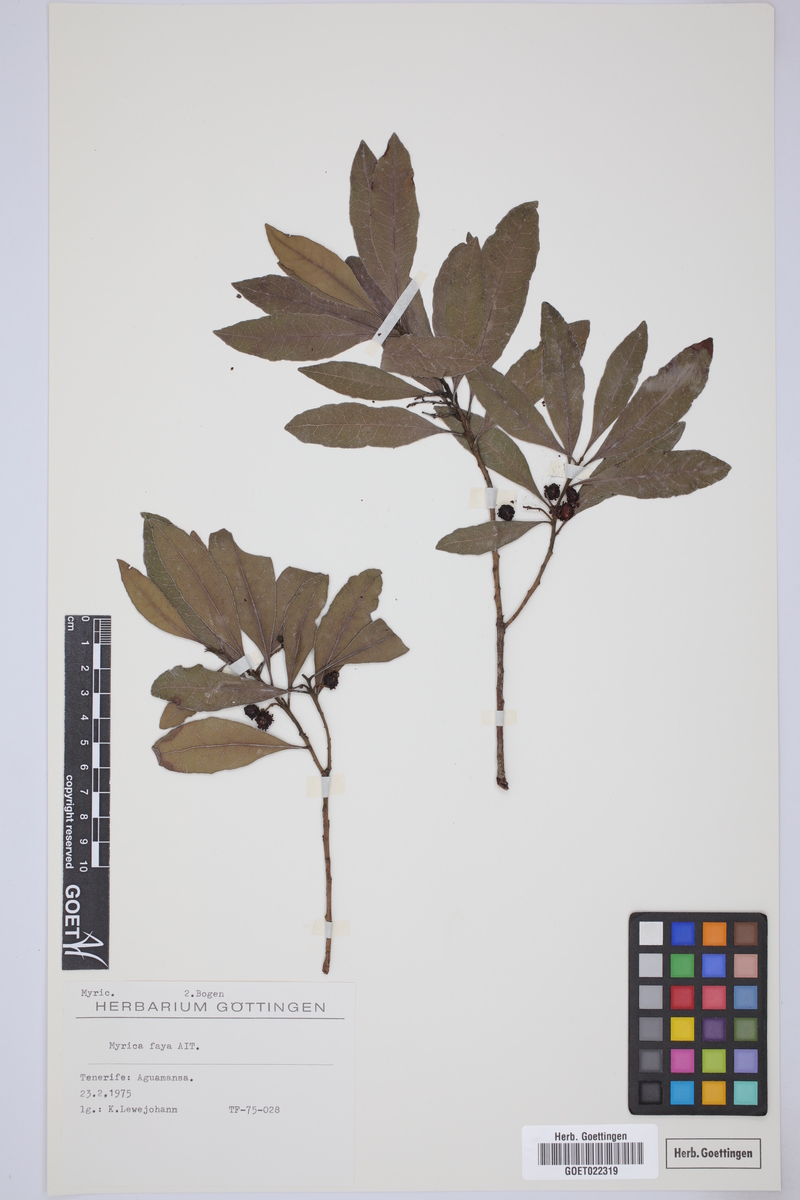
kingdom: Plantae
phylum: Tracheophyta
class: Magnoliopsida
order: Fagales
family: Myricaceae
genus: Morella
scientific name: Morella faya
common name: Firetree
